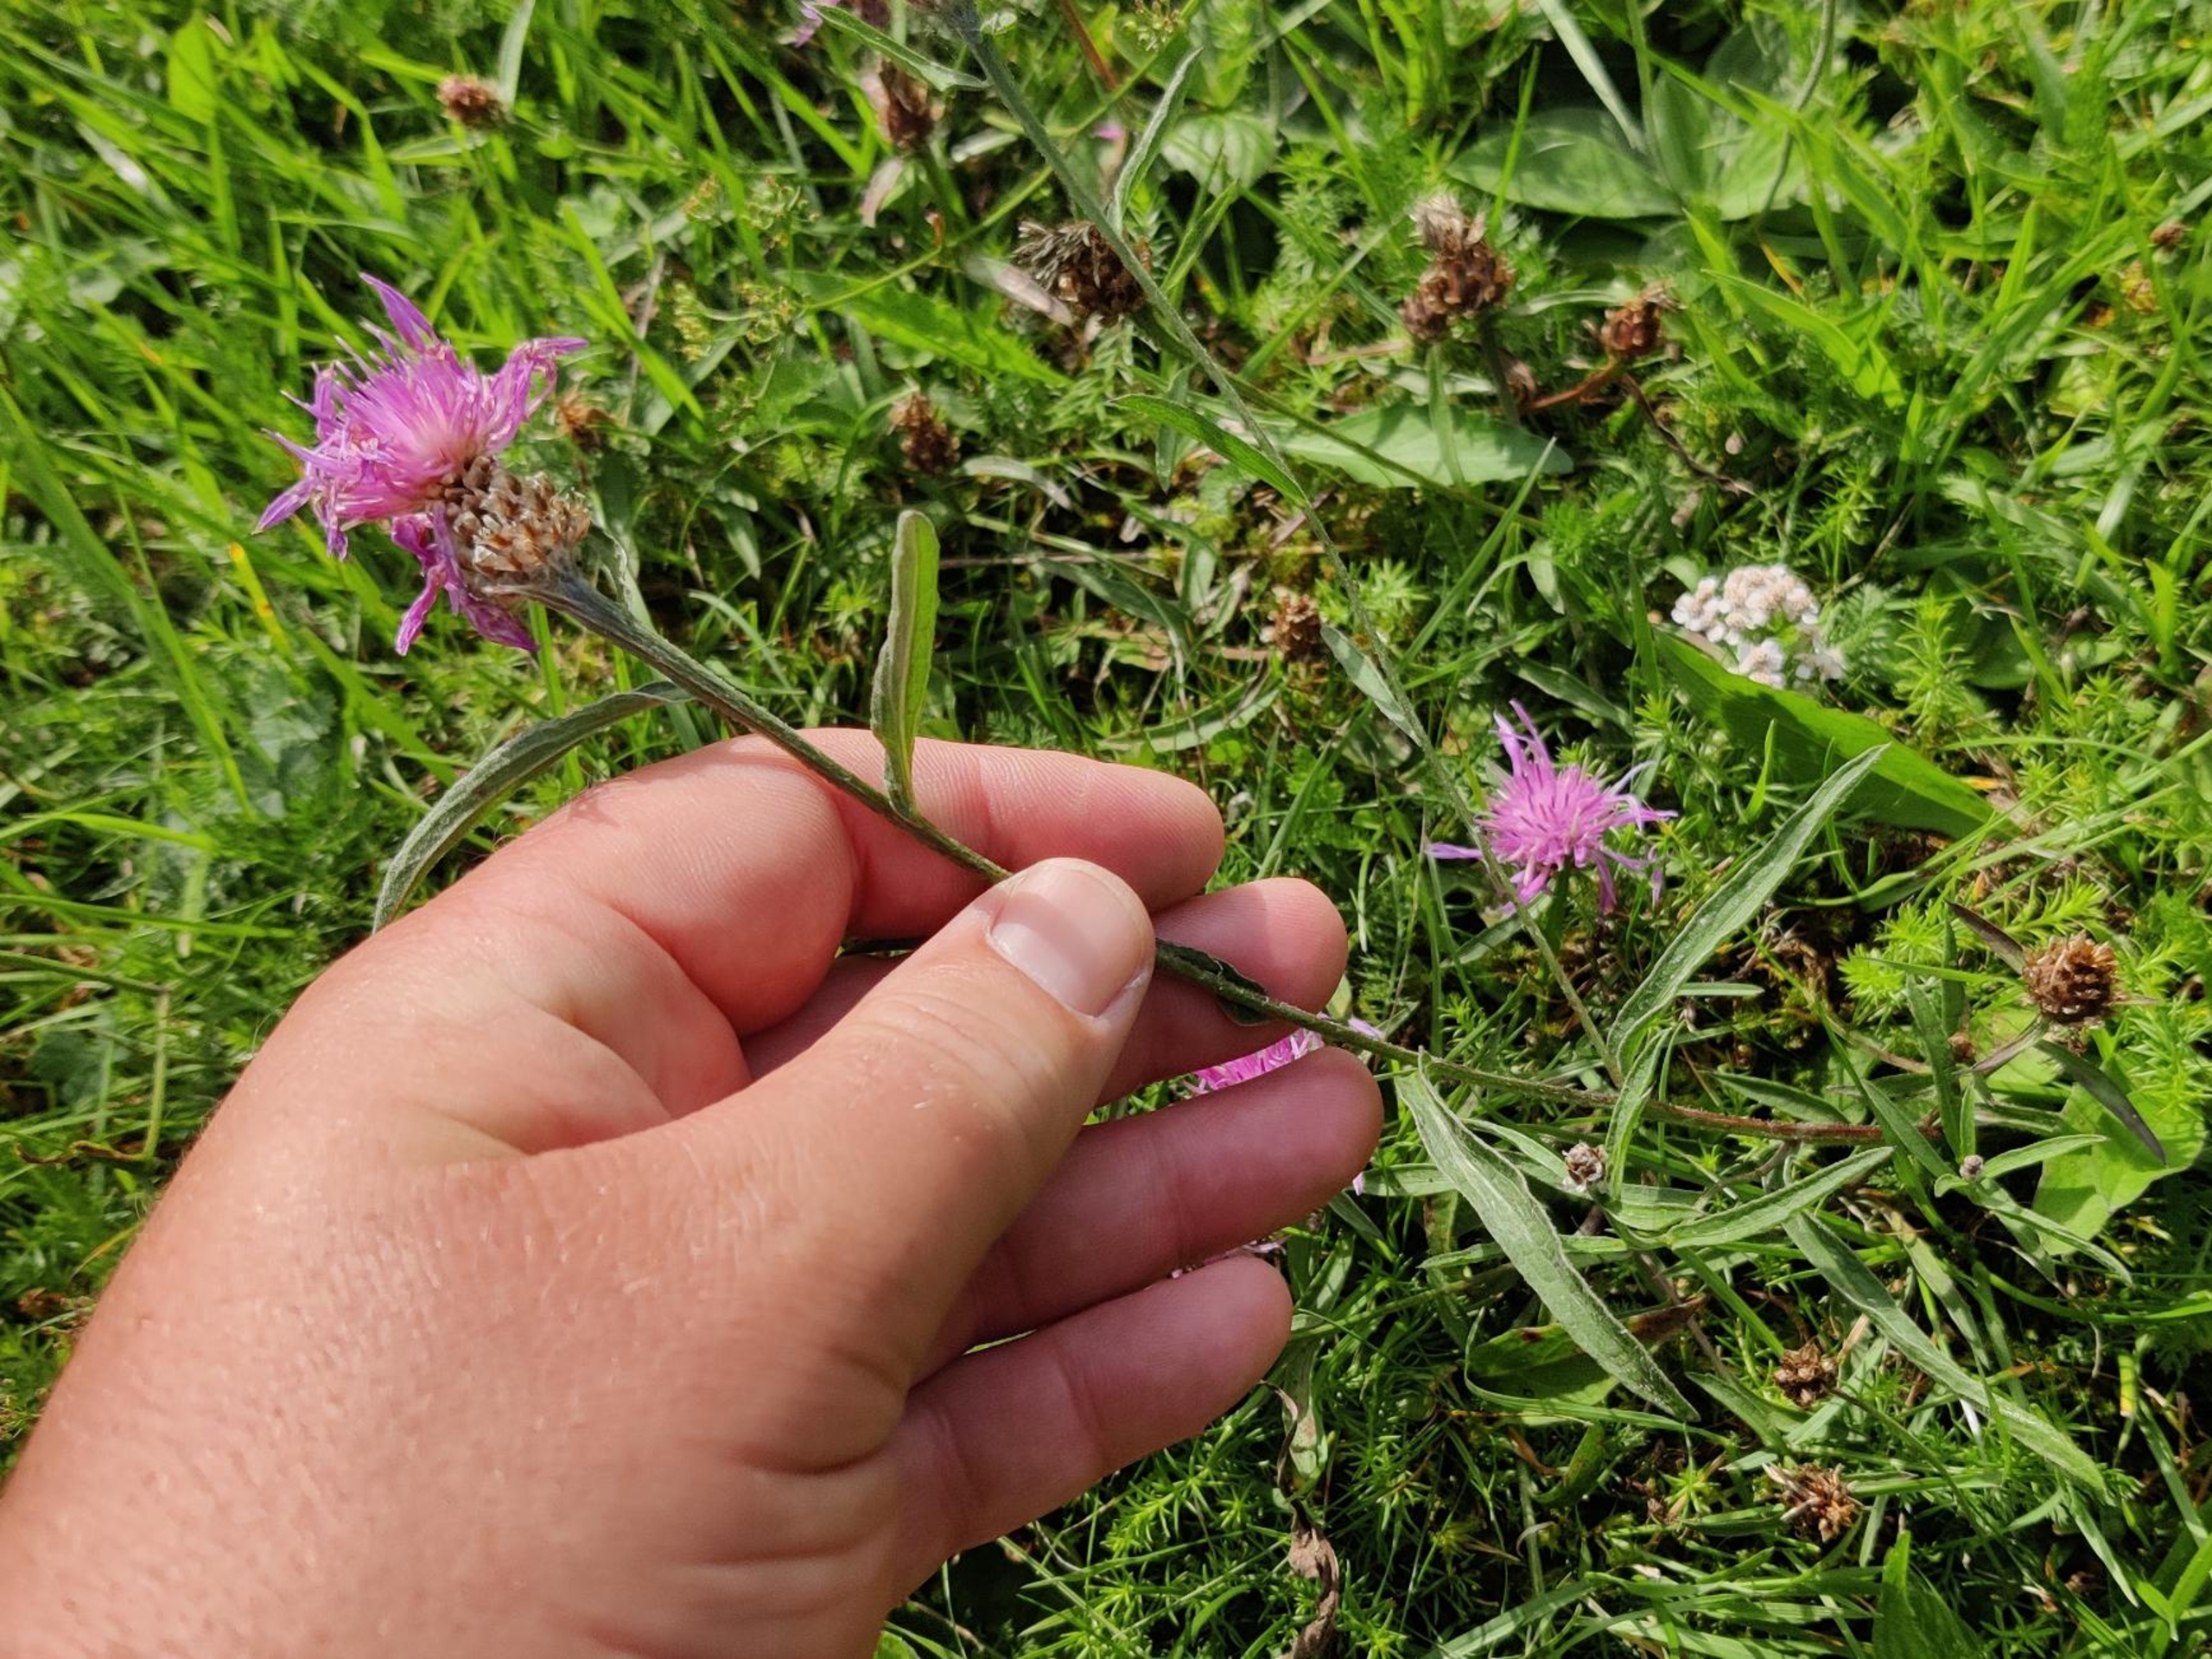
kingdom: Plantae
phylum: Tracheophyta
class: Magnoliopsida
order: Asterales
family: Asteraceae
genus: Centaurea
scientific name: Centaurea jacea
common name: Almindelig knopurt
